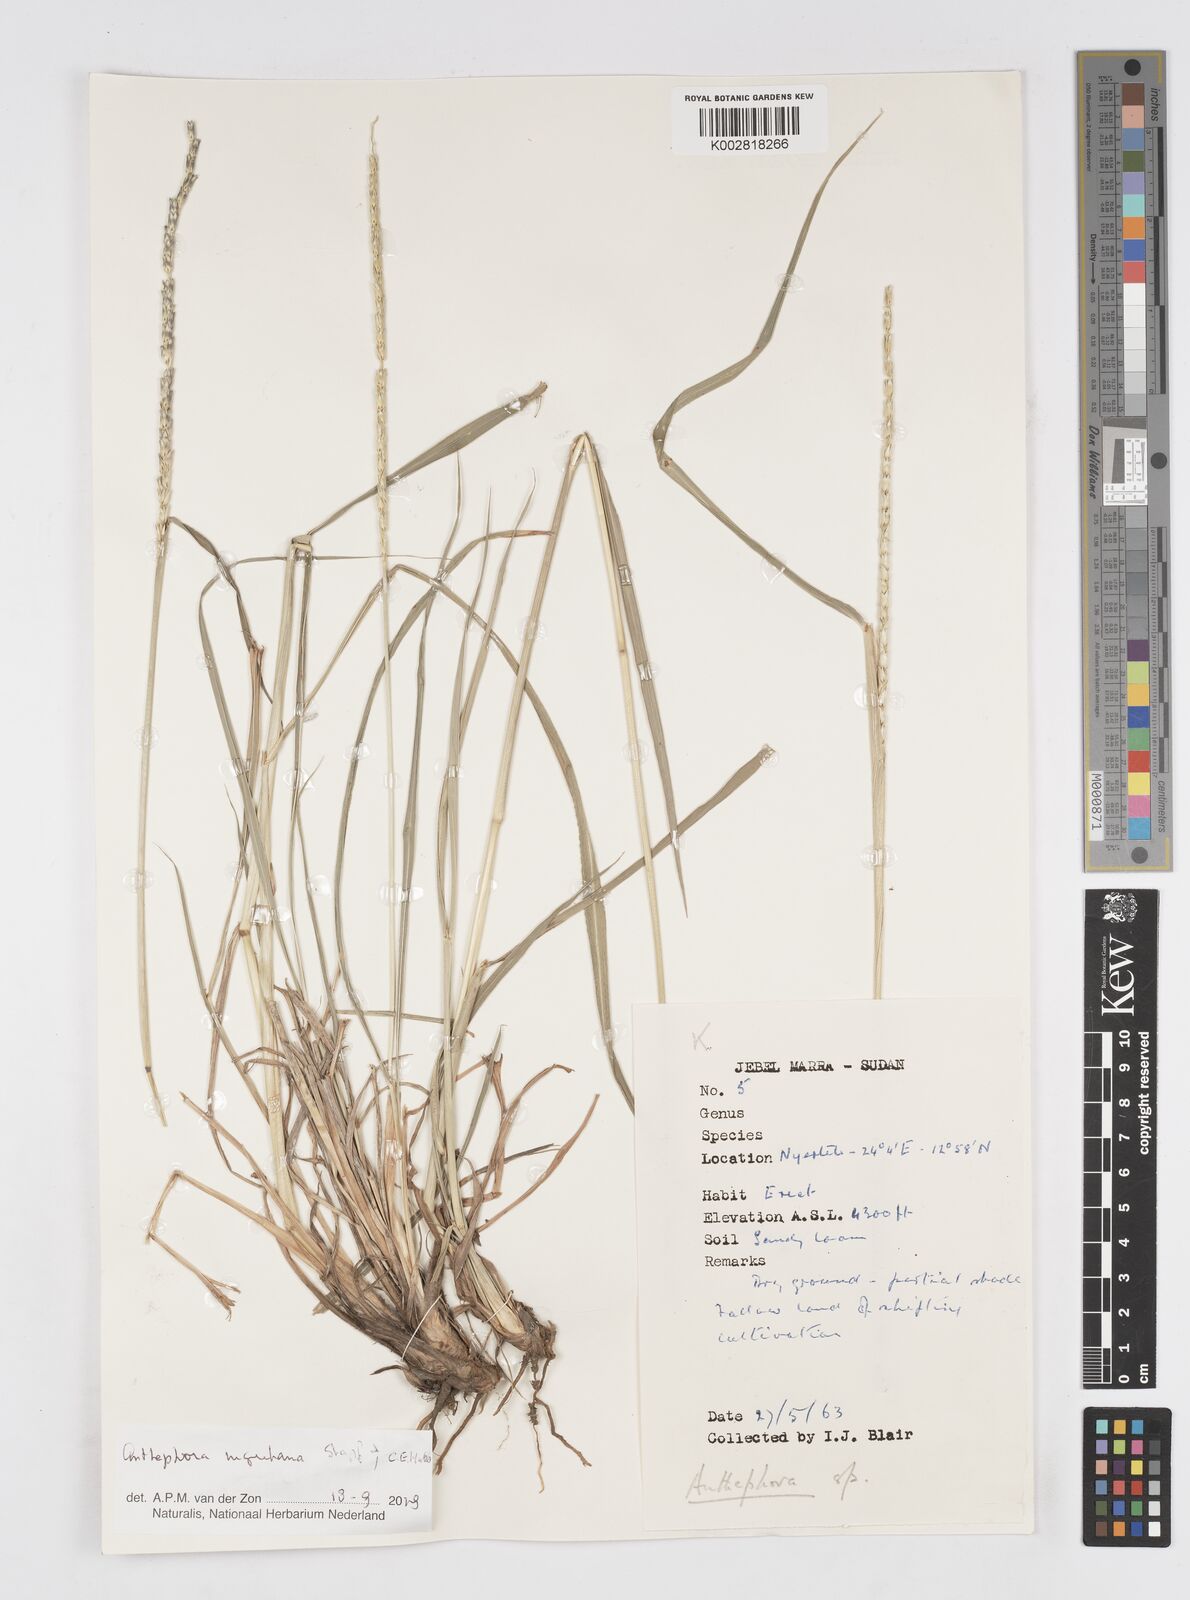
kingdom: Plantae
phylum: Tracheophyta
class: Liliopsida
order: Poales
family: Poaceae
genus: Anthephora
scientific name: Anthephora nigritana
